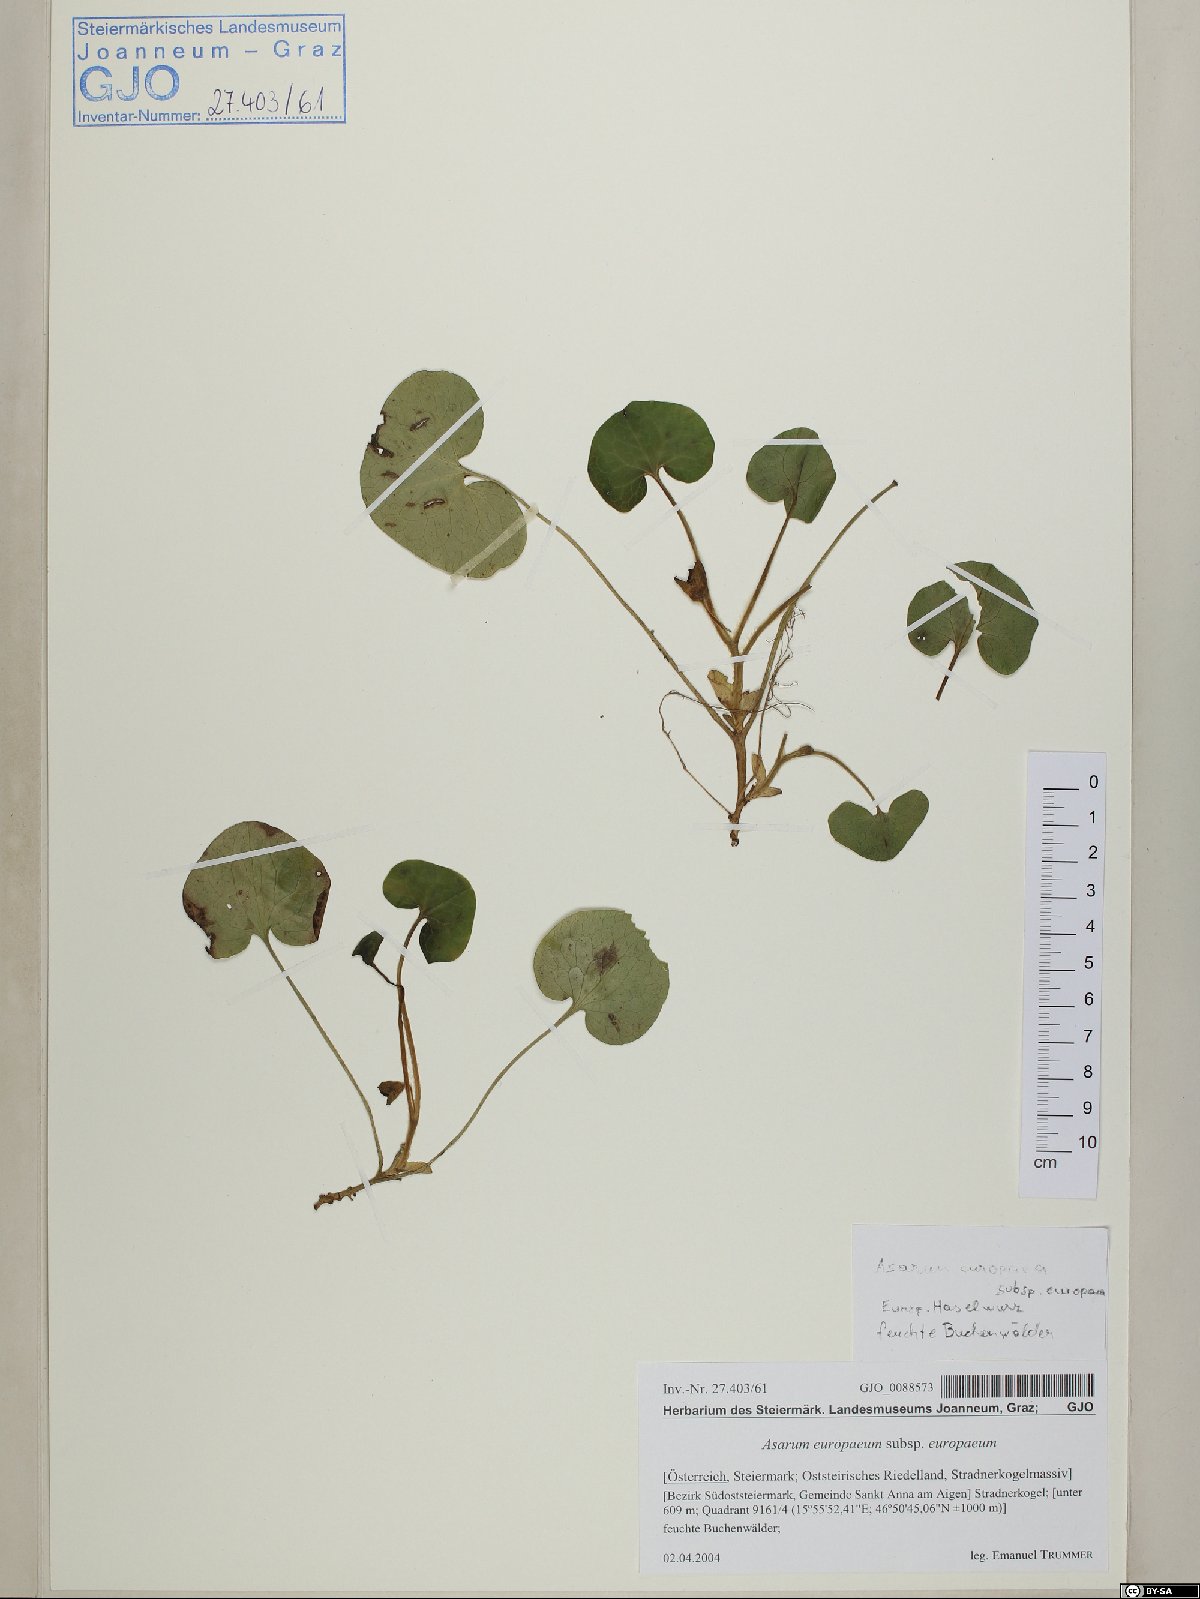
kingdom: Plantae
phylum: Tracheophyta
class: Magnoliopsida
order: Piperales
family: Aristolochiaceae
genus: Asarum
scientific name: Asarum europaeum
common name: Asarabacca
